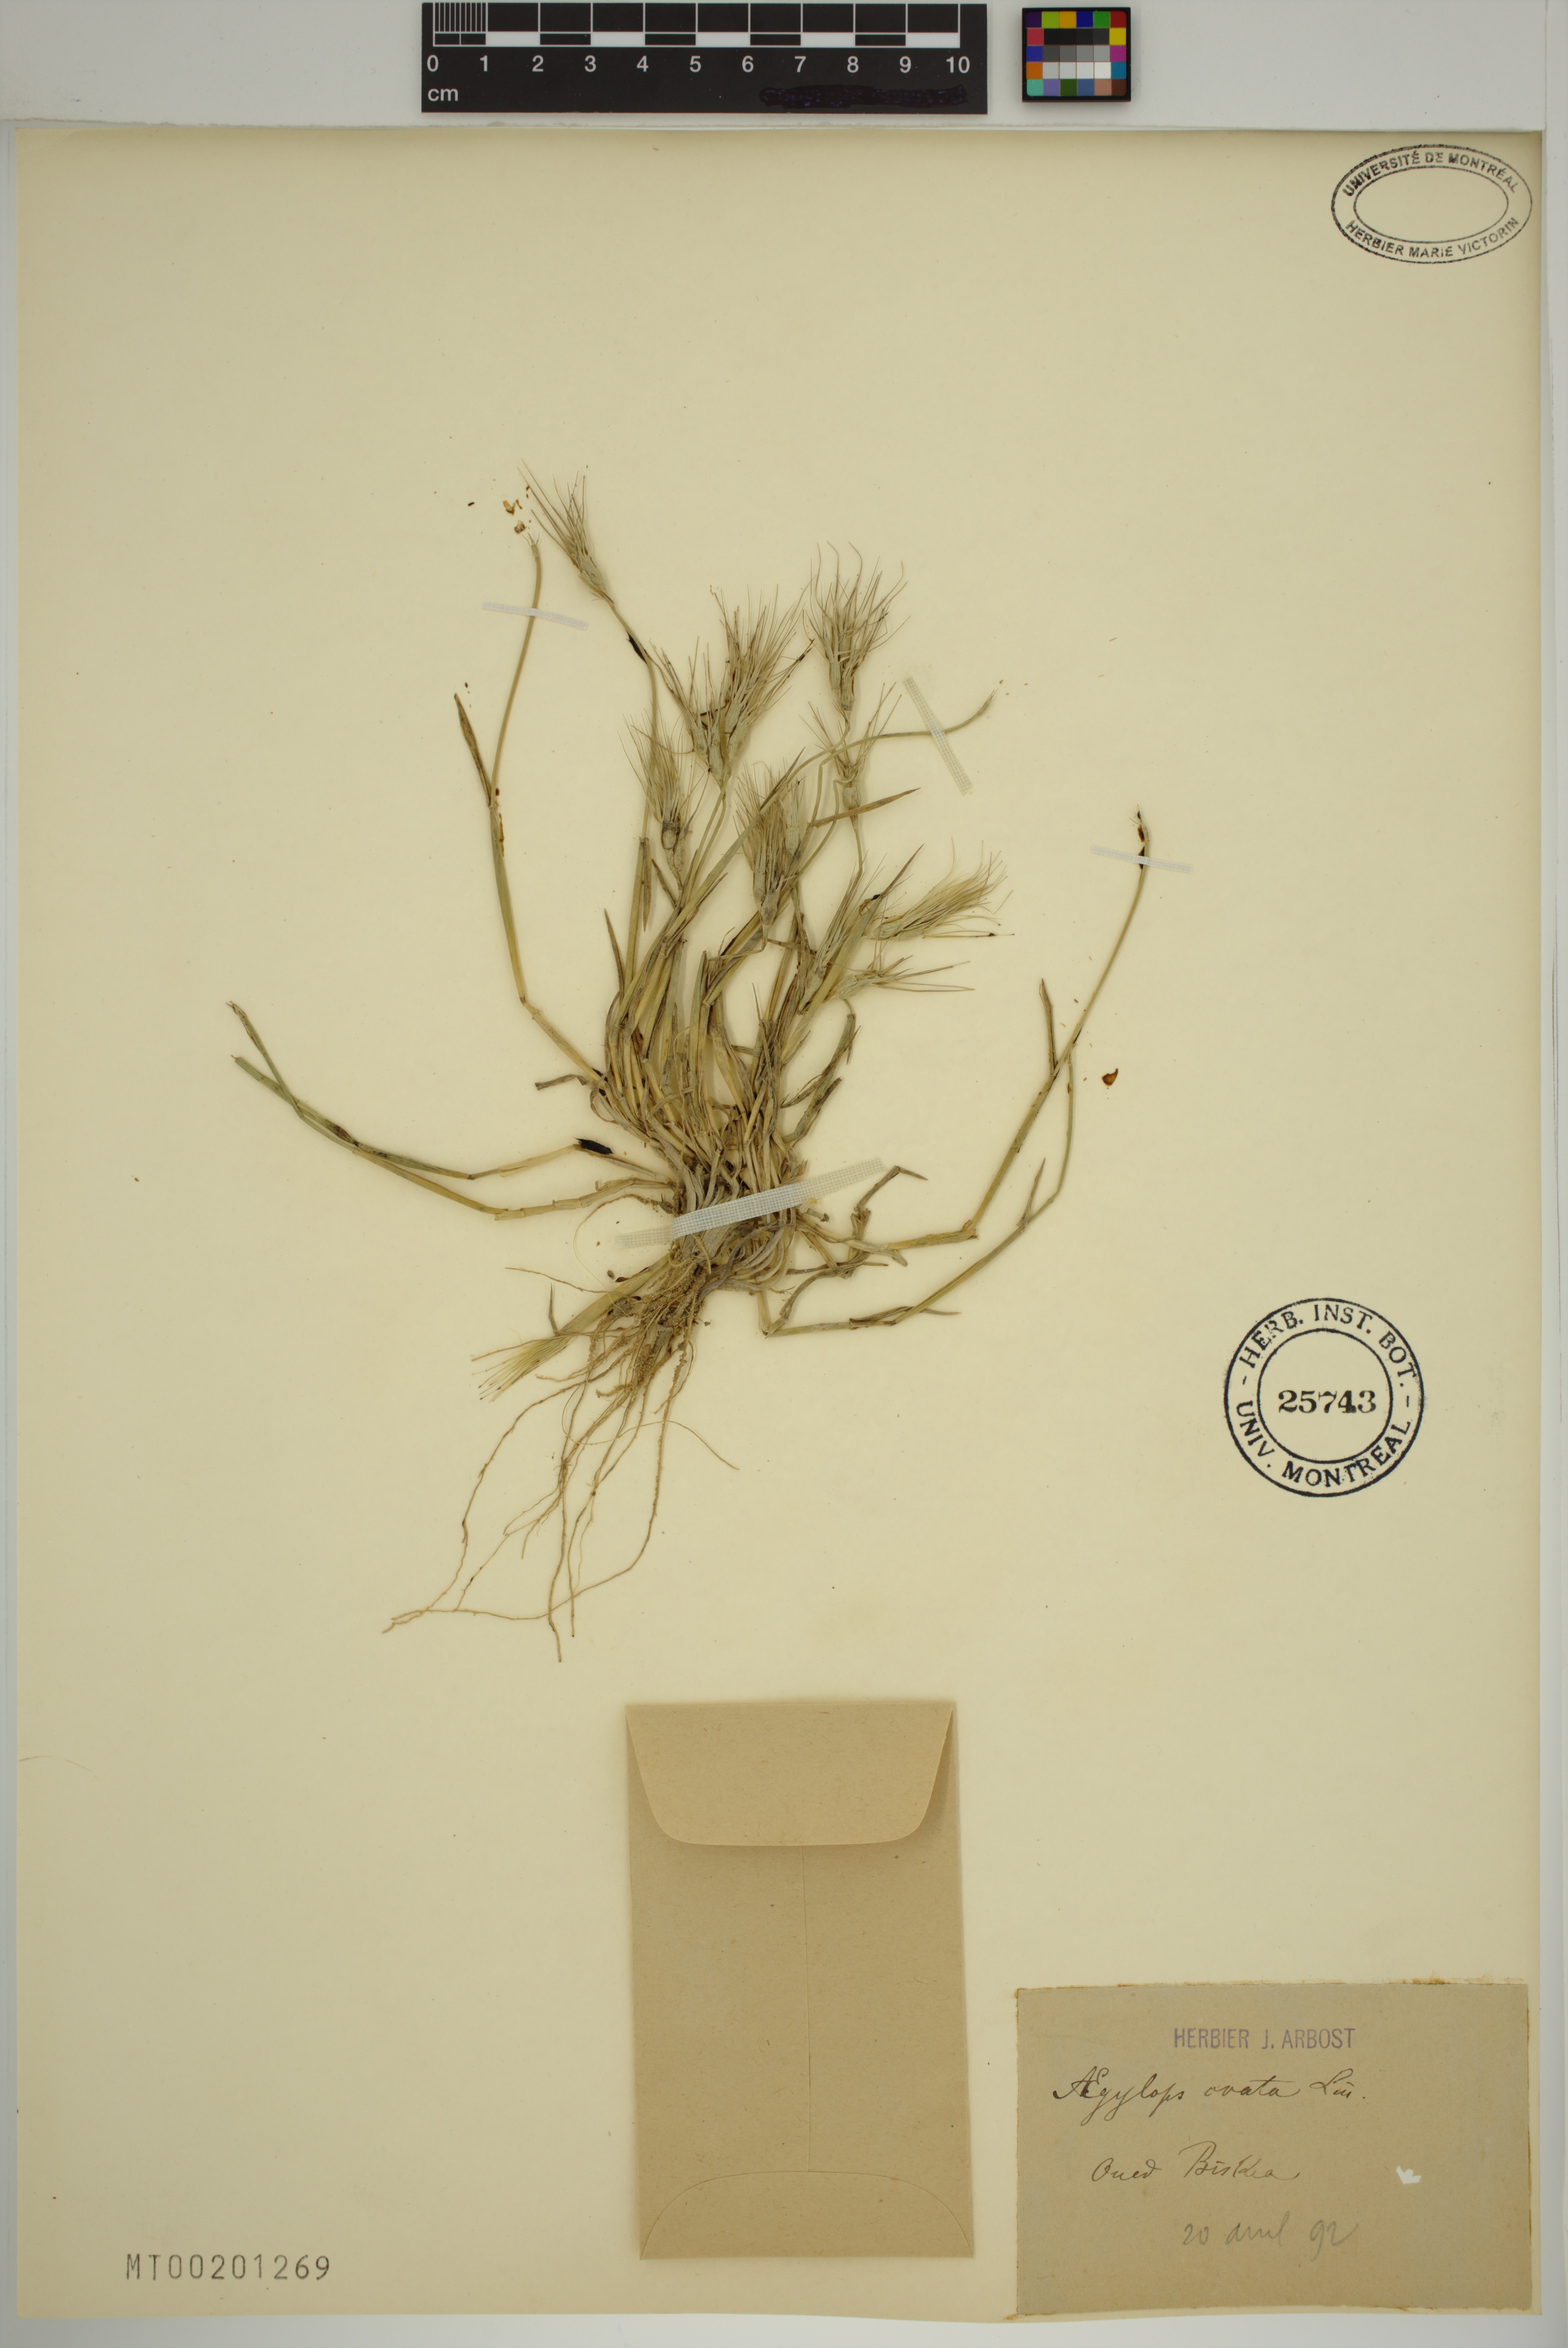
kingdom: Plantae
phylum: Tracheophyta
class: Liliopsida
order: Poales
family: Poaceae
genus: Aegilops
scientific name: Aegilops neglecta
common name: Three-awn goat grass
